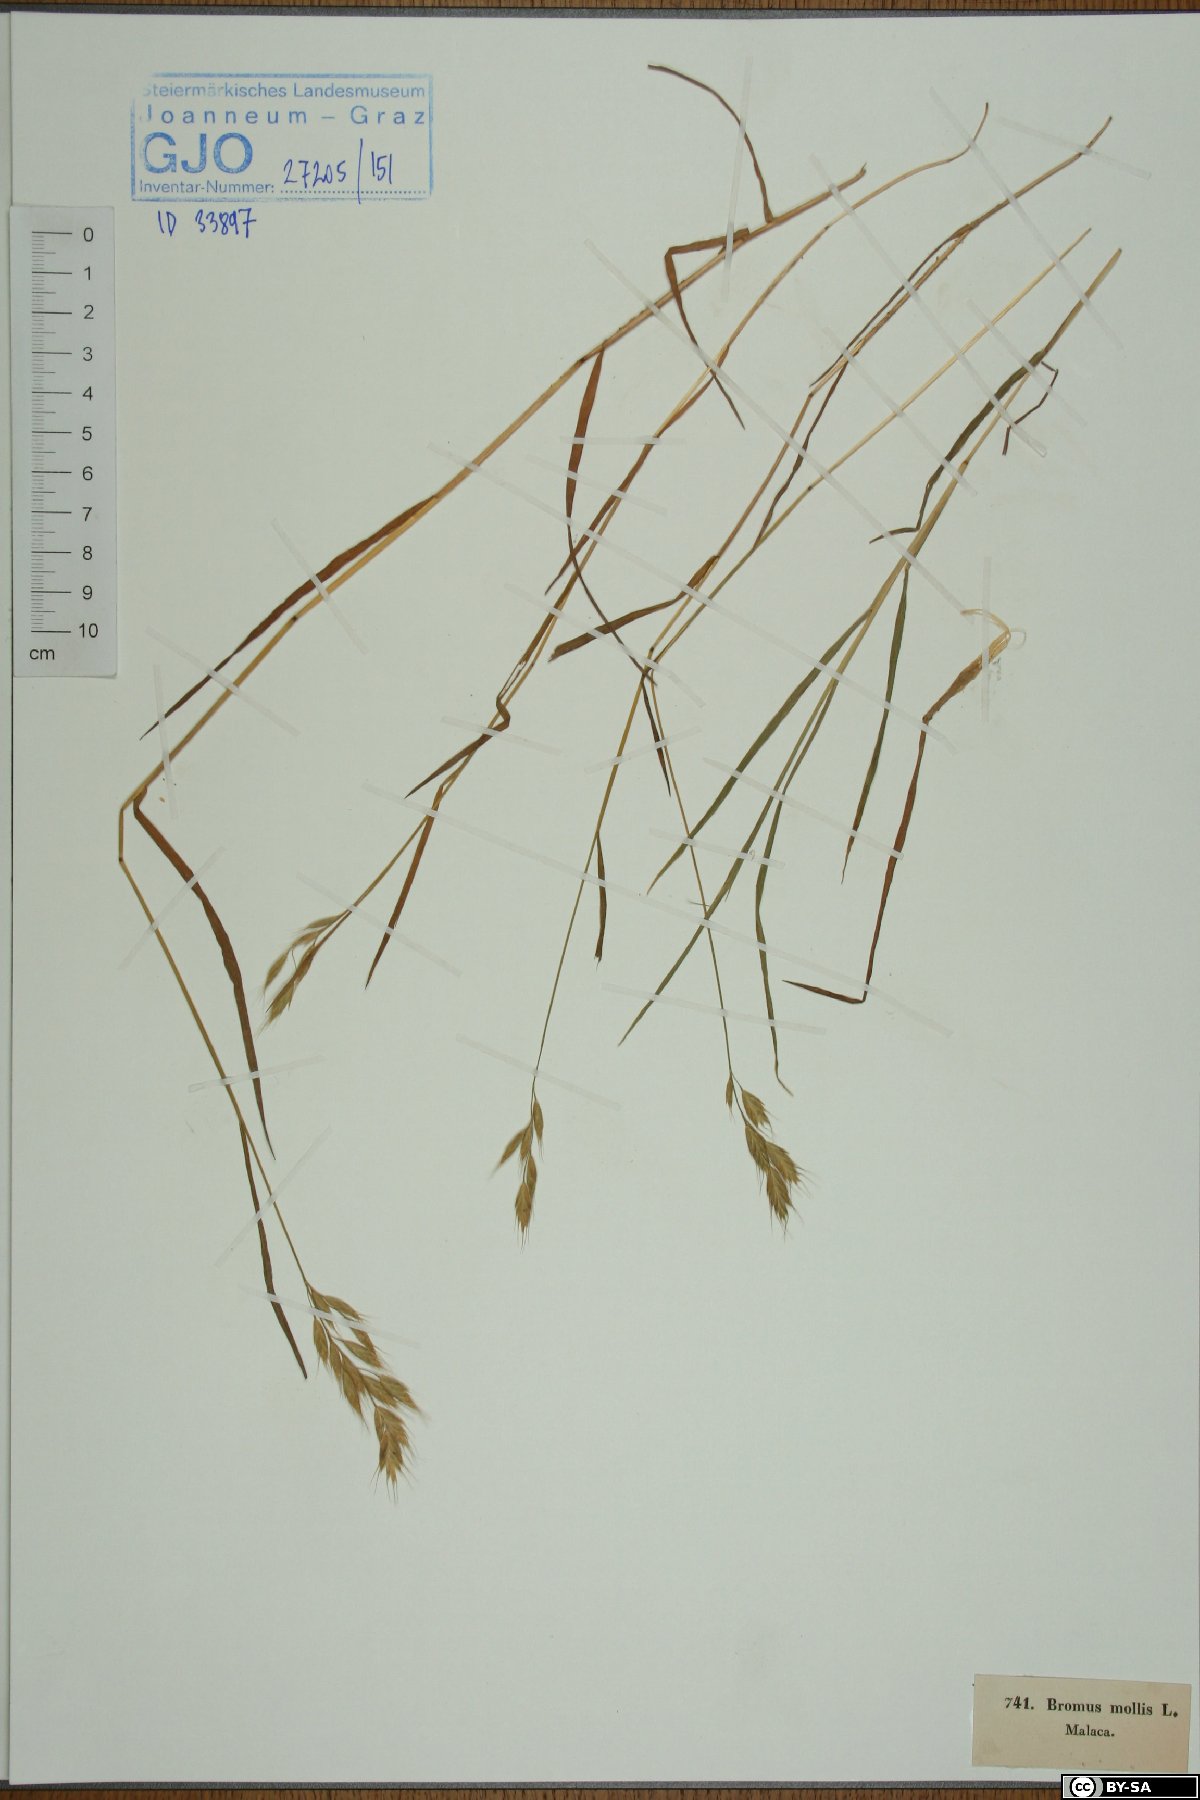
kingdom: Plantae
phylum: Tracheophyta
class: Liliopsida
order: Poales
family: Poaceae
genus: Bromus
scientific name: Bromus hordeaceus
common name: Soft brome
